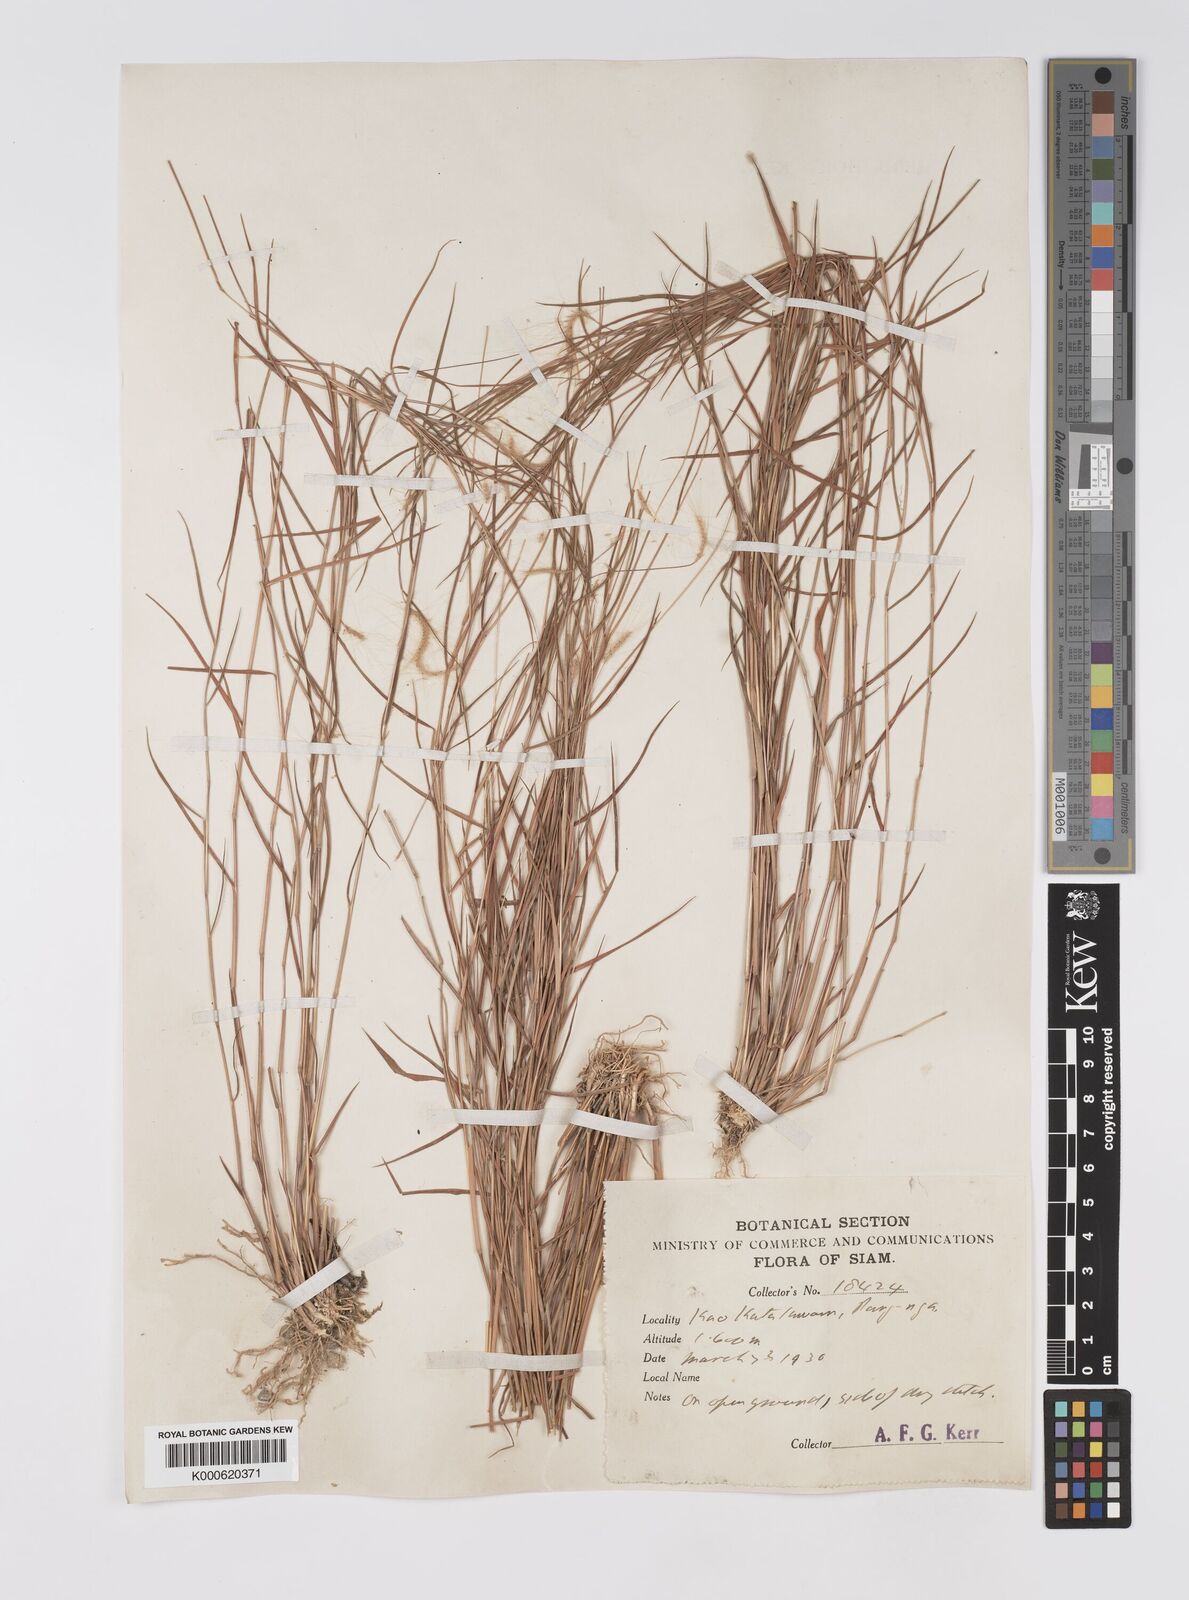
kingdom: Plantae
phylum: Tracheophyta
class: Liliopsida
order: Poales
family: Poaceae
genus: Pogonatherum
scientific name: Pogonatherum crinitum
